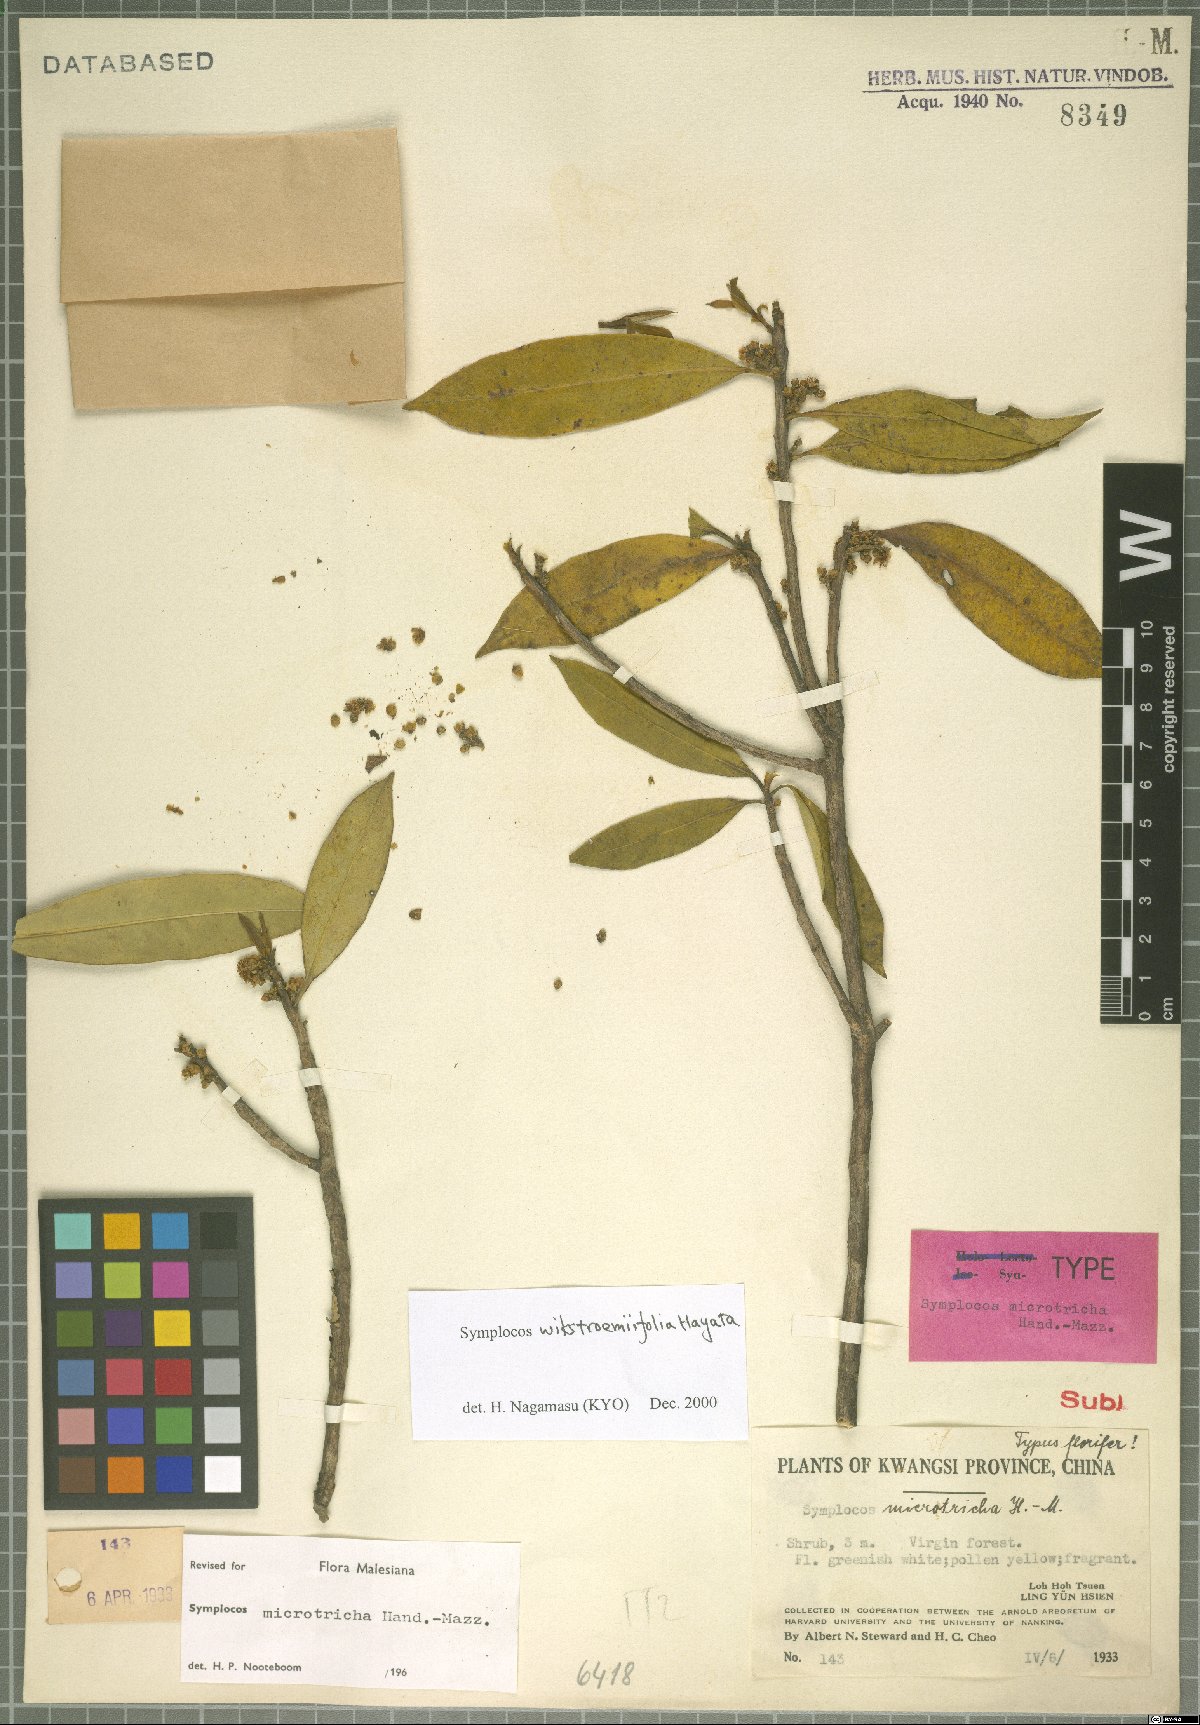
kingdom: Plantae
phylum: Tracheophyta
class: Magnoliopsida
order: Ericales
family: Symplocaceae
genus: Symplocos
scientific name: Symplocos wikstroemiifolia
